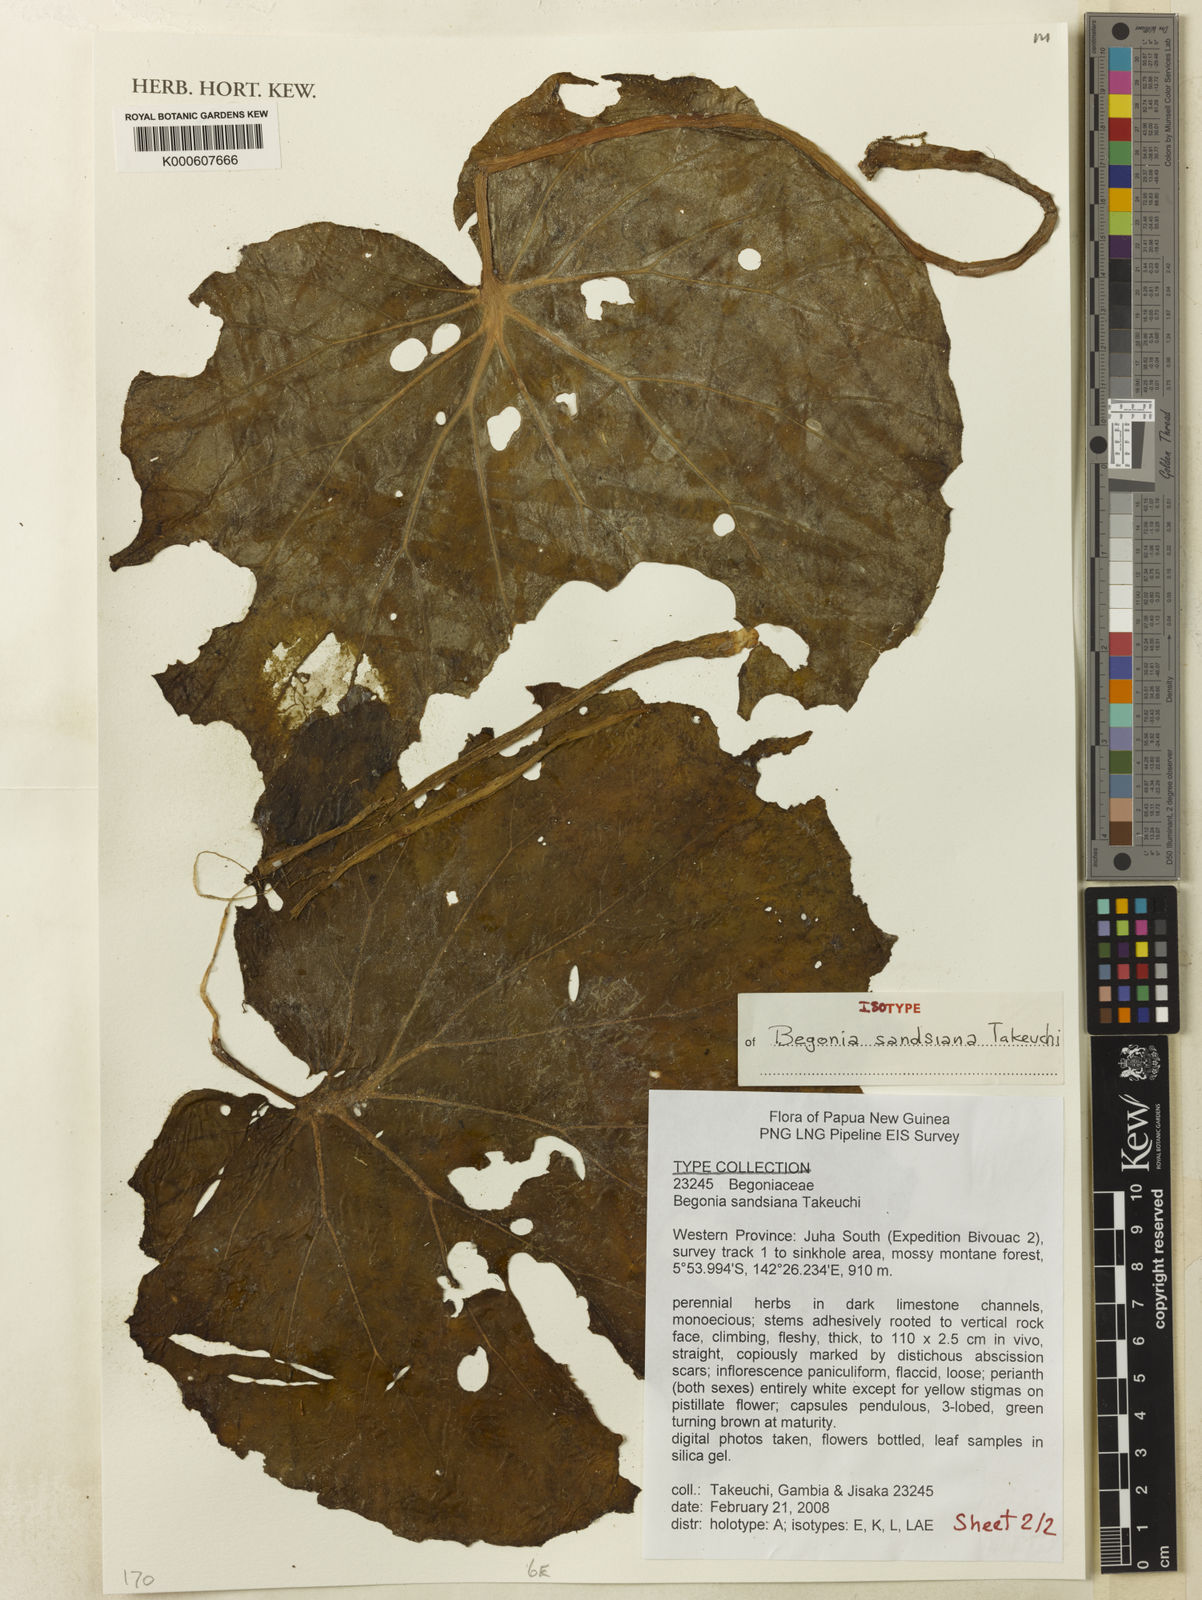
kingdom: Plantae
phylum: Tracheophyta
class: Magnoliopsida
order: Cucurbitales
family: Begoniaceae
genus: Begonia
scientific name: Begonia sandsiana
